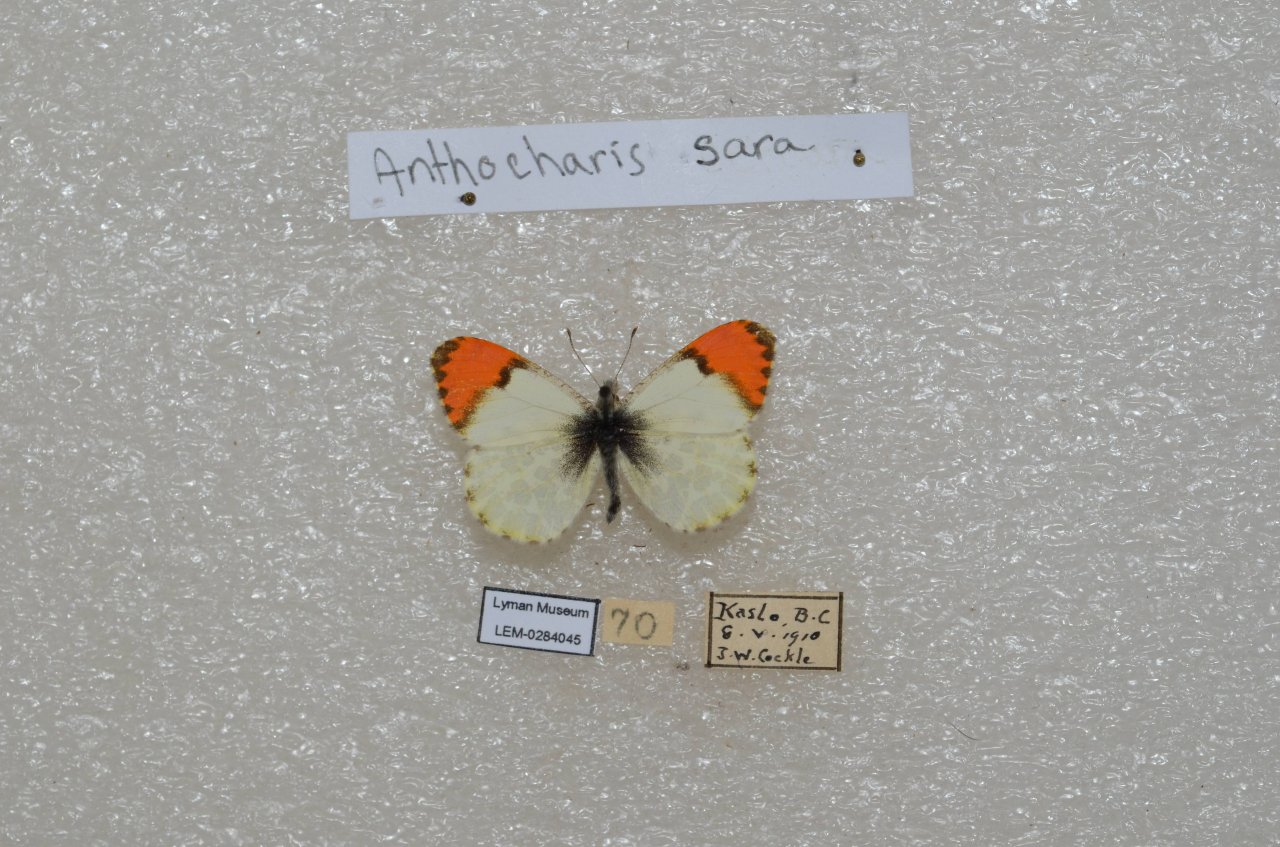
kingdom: Animalia
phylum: Arthropoda
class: Insecta
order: Lepidoptera
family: Pieridae
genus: Anthocharis
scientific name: Anthocharis sara
